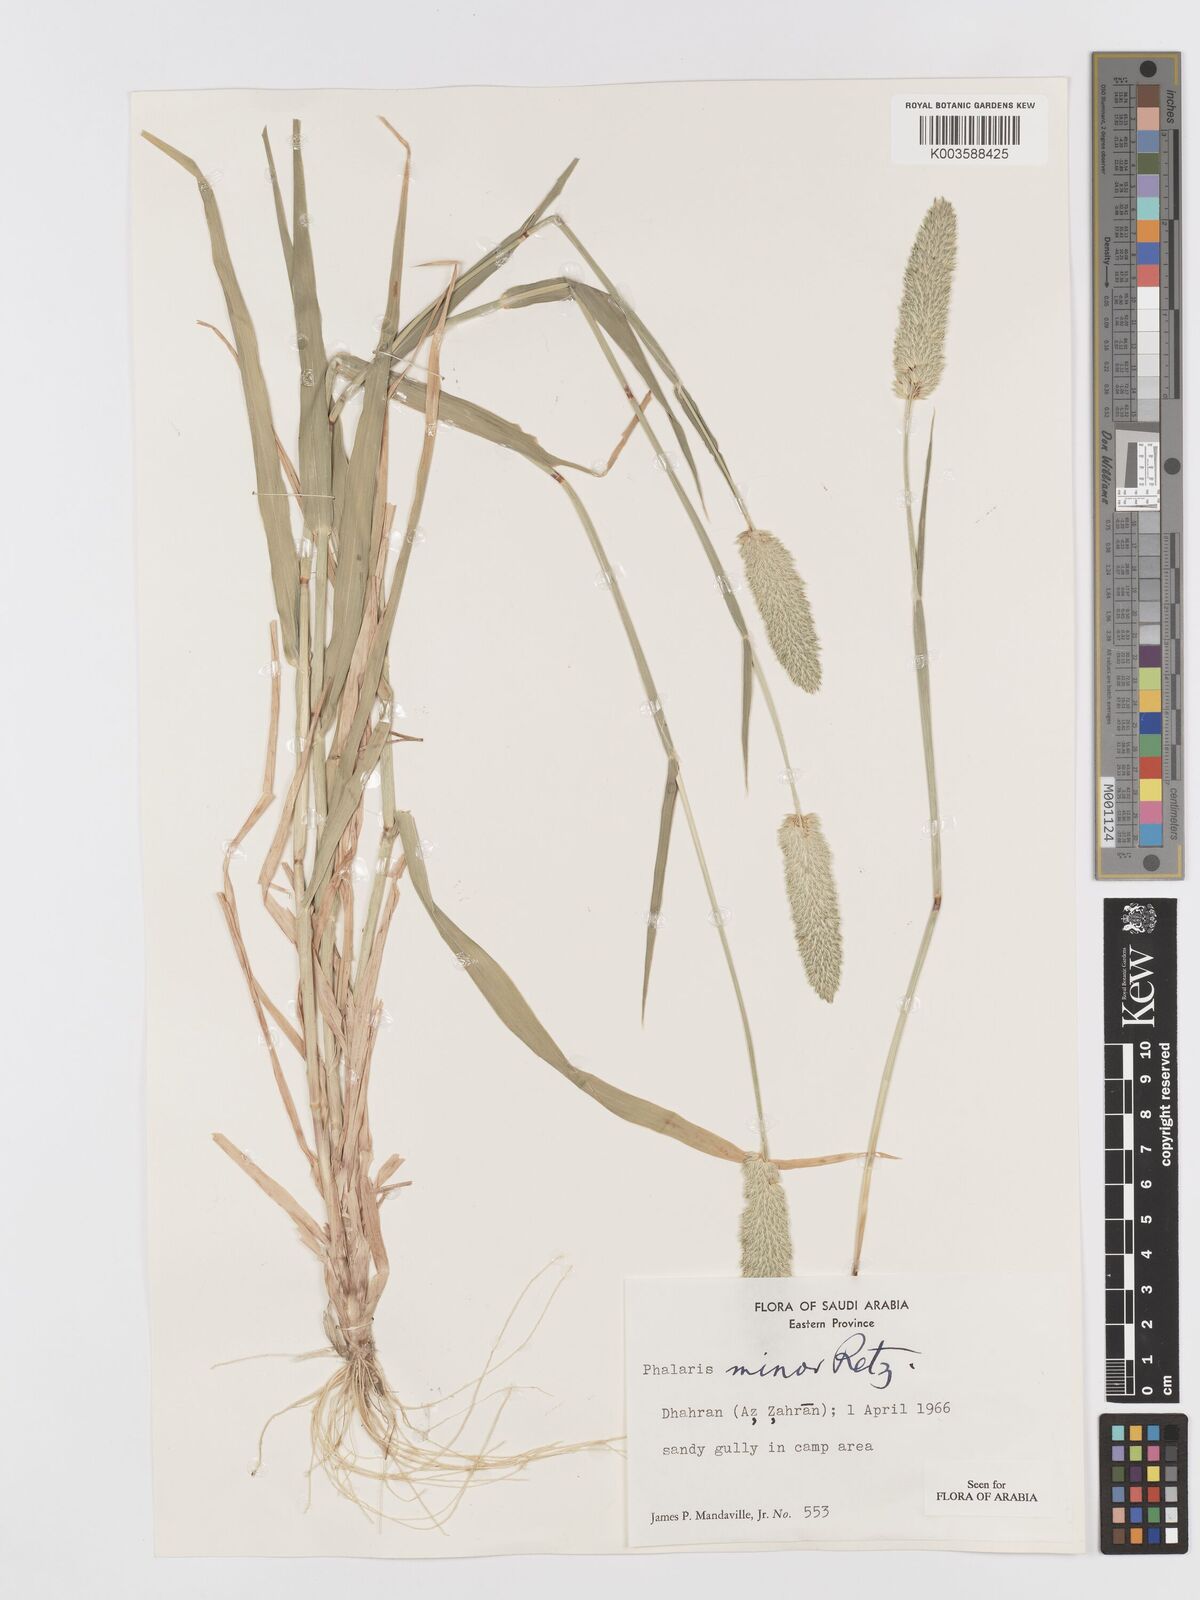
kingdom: Plantae
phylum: Tracheophyta
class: Liliopsida
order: Poales
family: Poaceae
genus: Phalaris
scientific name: Phalaris minor
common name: Littleseed canarygrass
